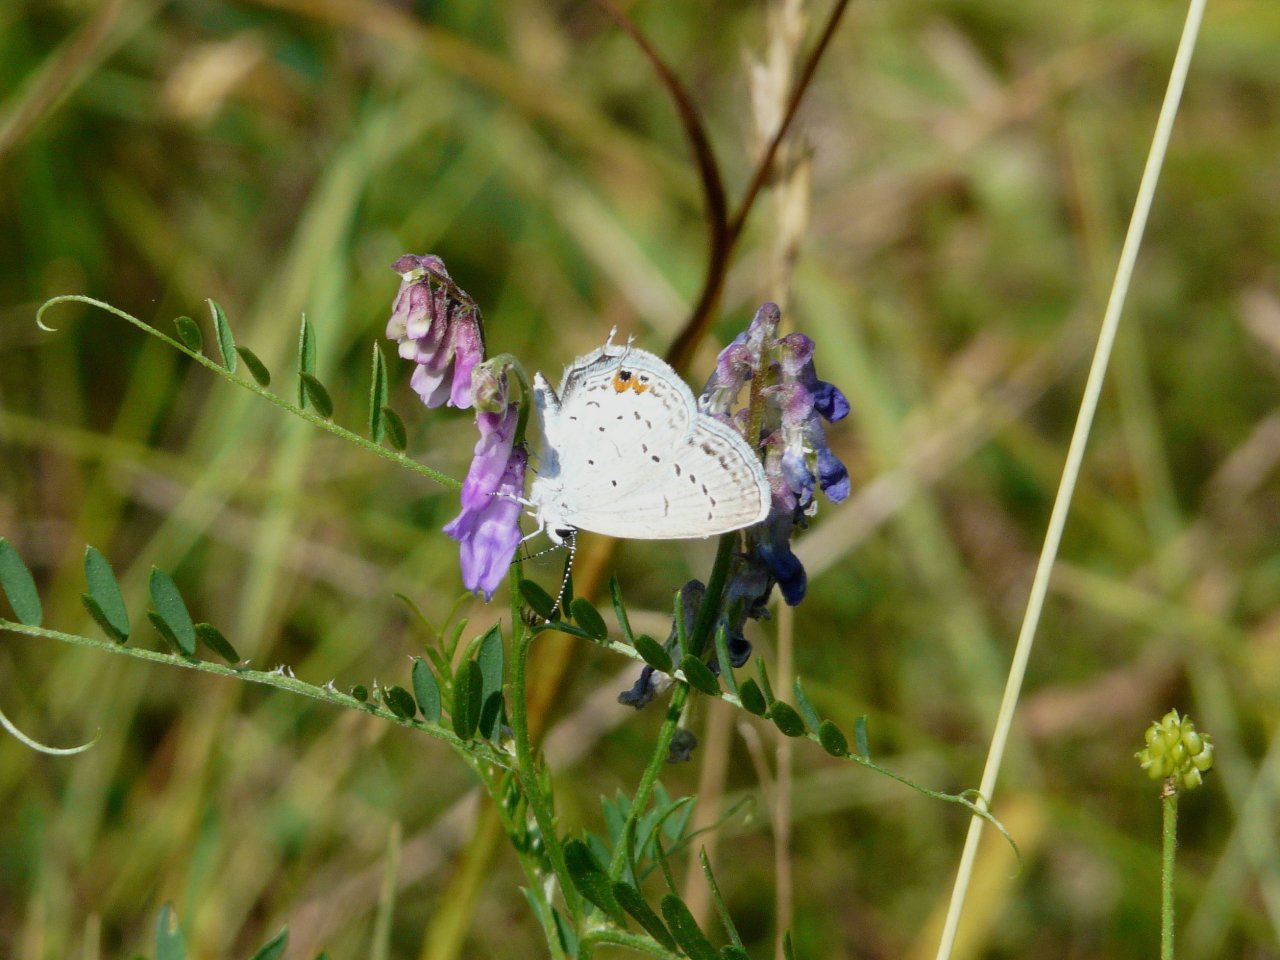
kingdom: Animalia
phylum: Arthropoda
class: Insecta
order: Lepidoptera
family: Lycaenidae
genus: Elkalyce
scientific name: Elkalyce comyntas
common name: Eastern Tailed-Blue
